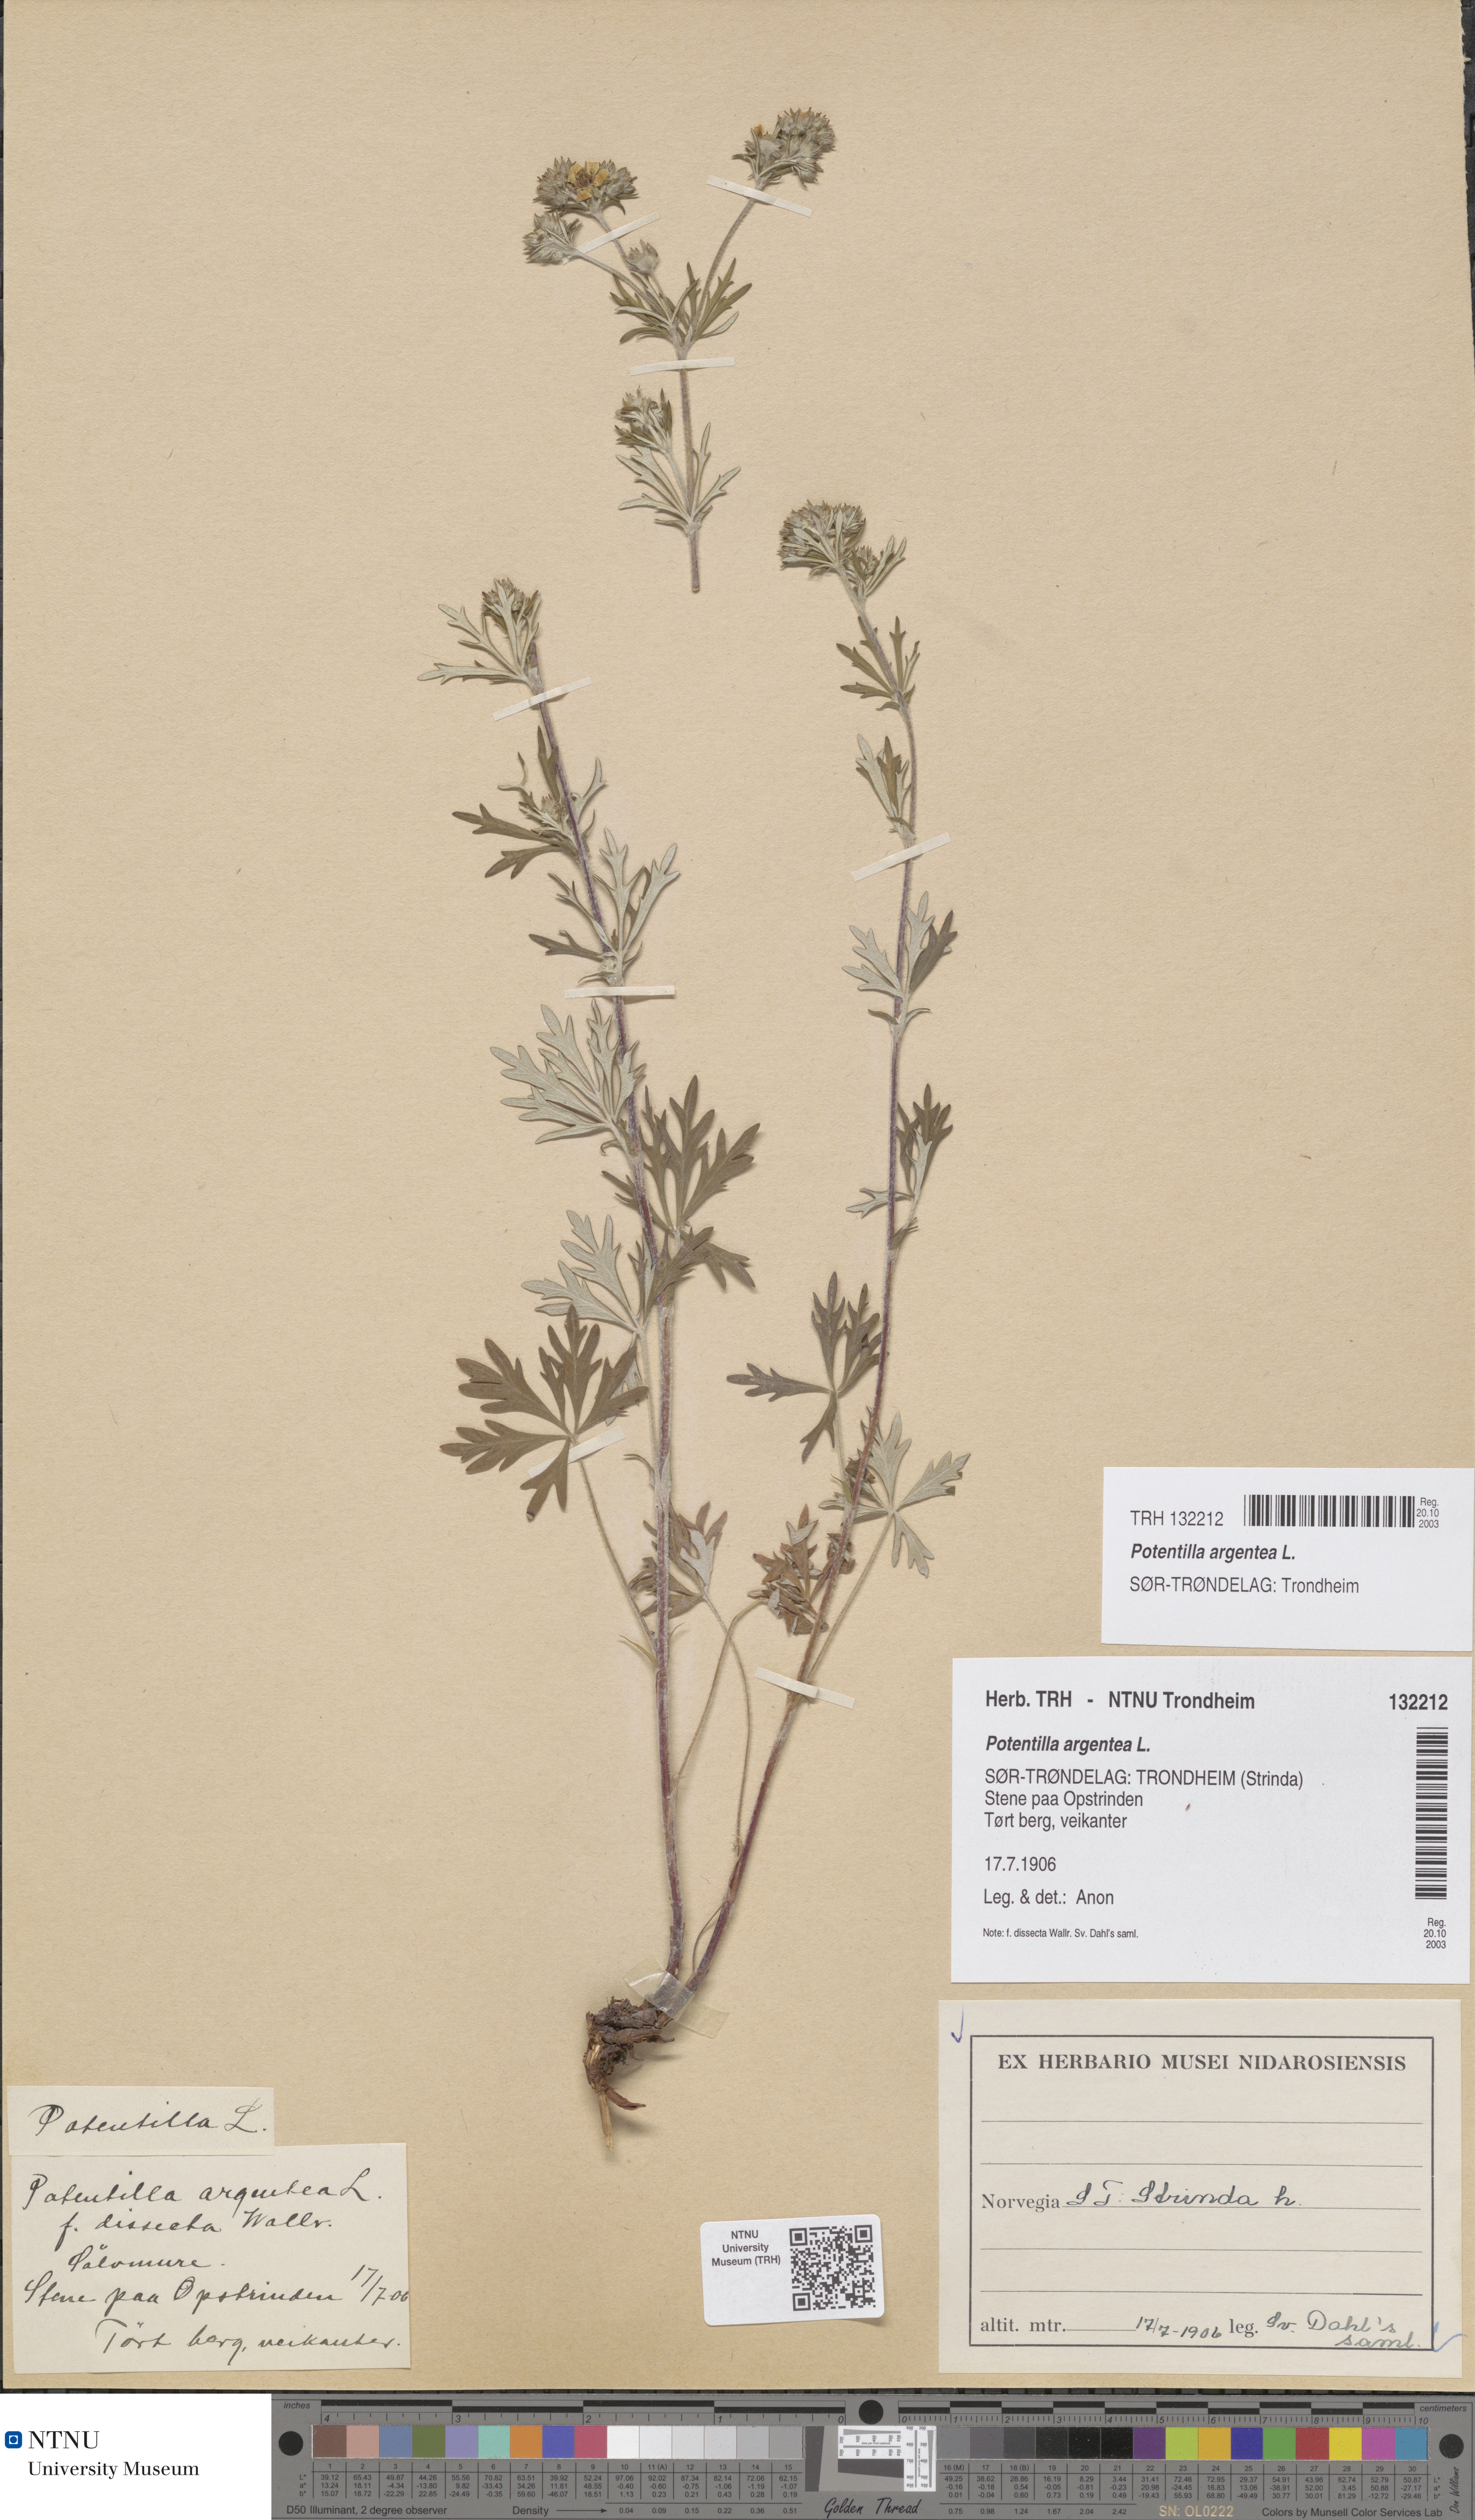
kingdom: Plantae
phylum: Tracheophyta
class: Magnoliopsida
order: Rosales
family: Rosaceae
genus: Potentilla
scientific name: Potentilla argentea
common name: Hoary cinquefoil
